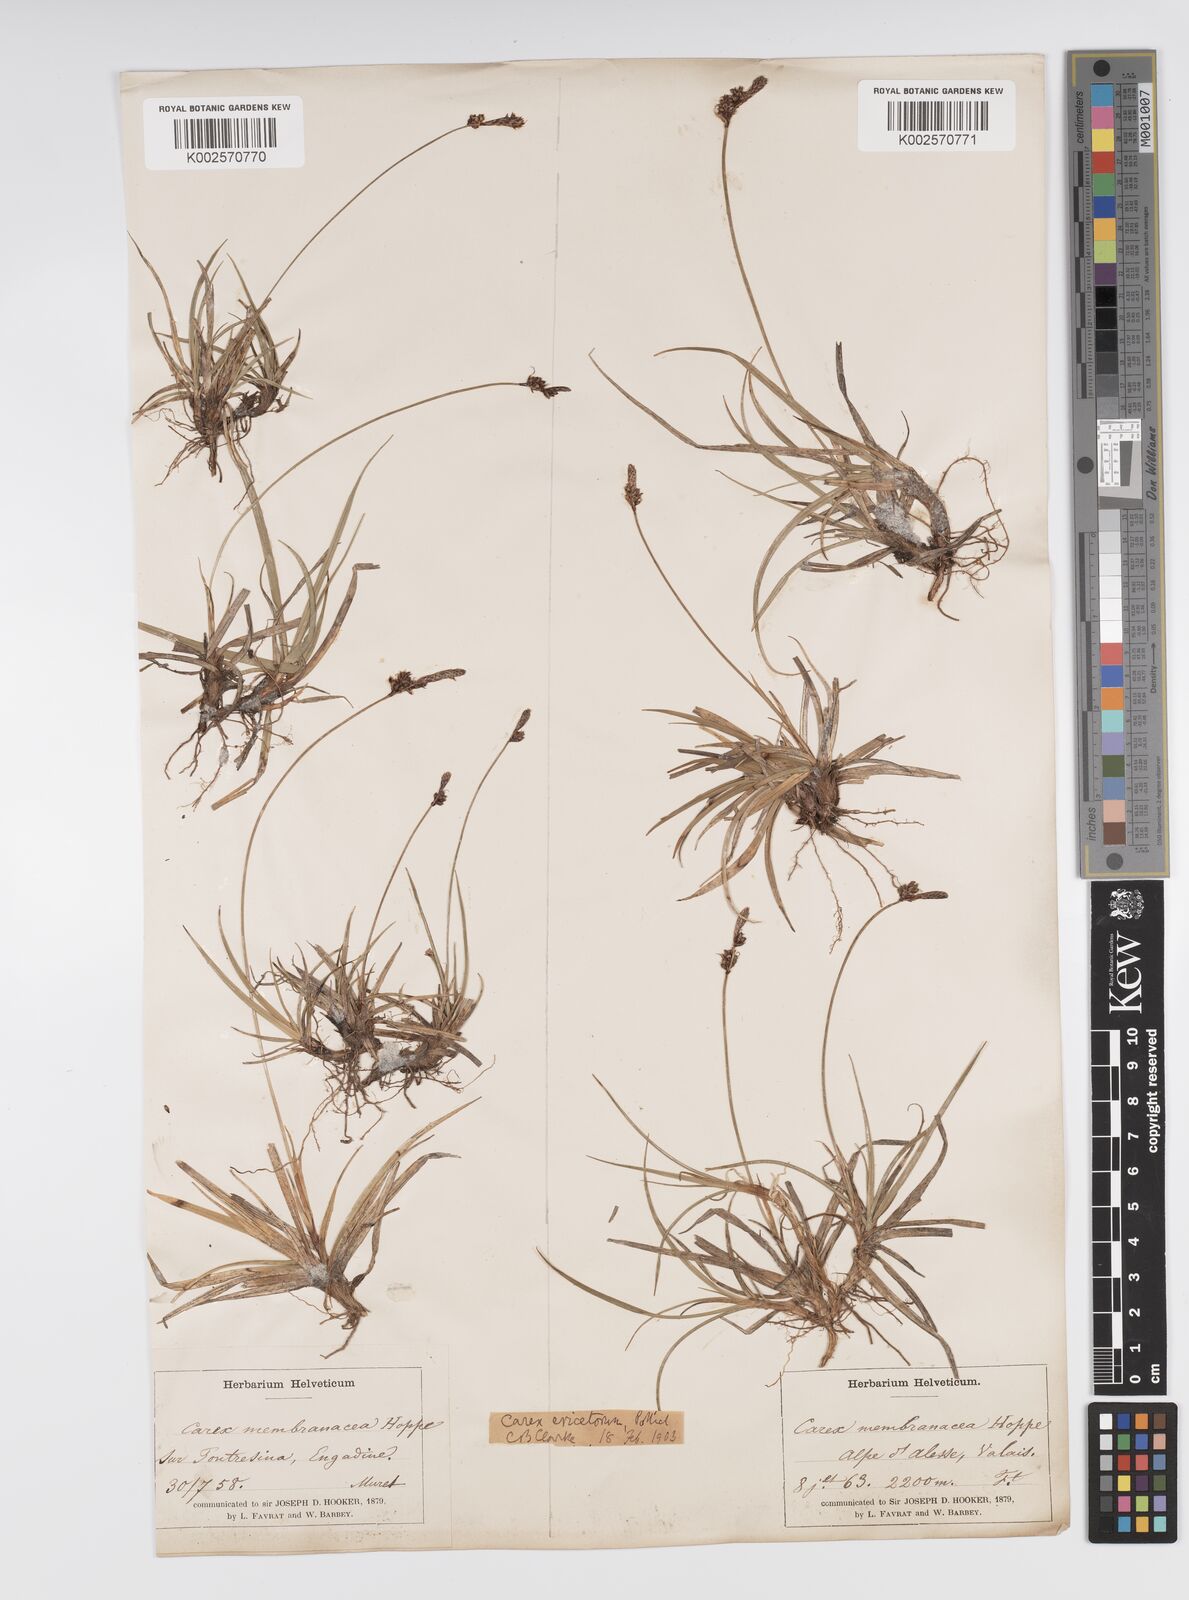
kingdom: Plantae
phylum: Tracheophyta
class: Liliopsida
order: Poales
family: Cyperaceae
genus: Carex
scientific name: Carex ericetorum
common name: Rare spring-sedge
